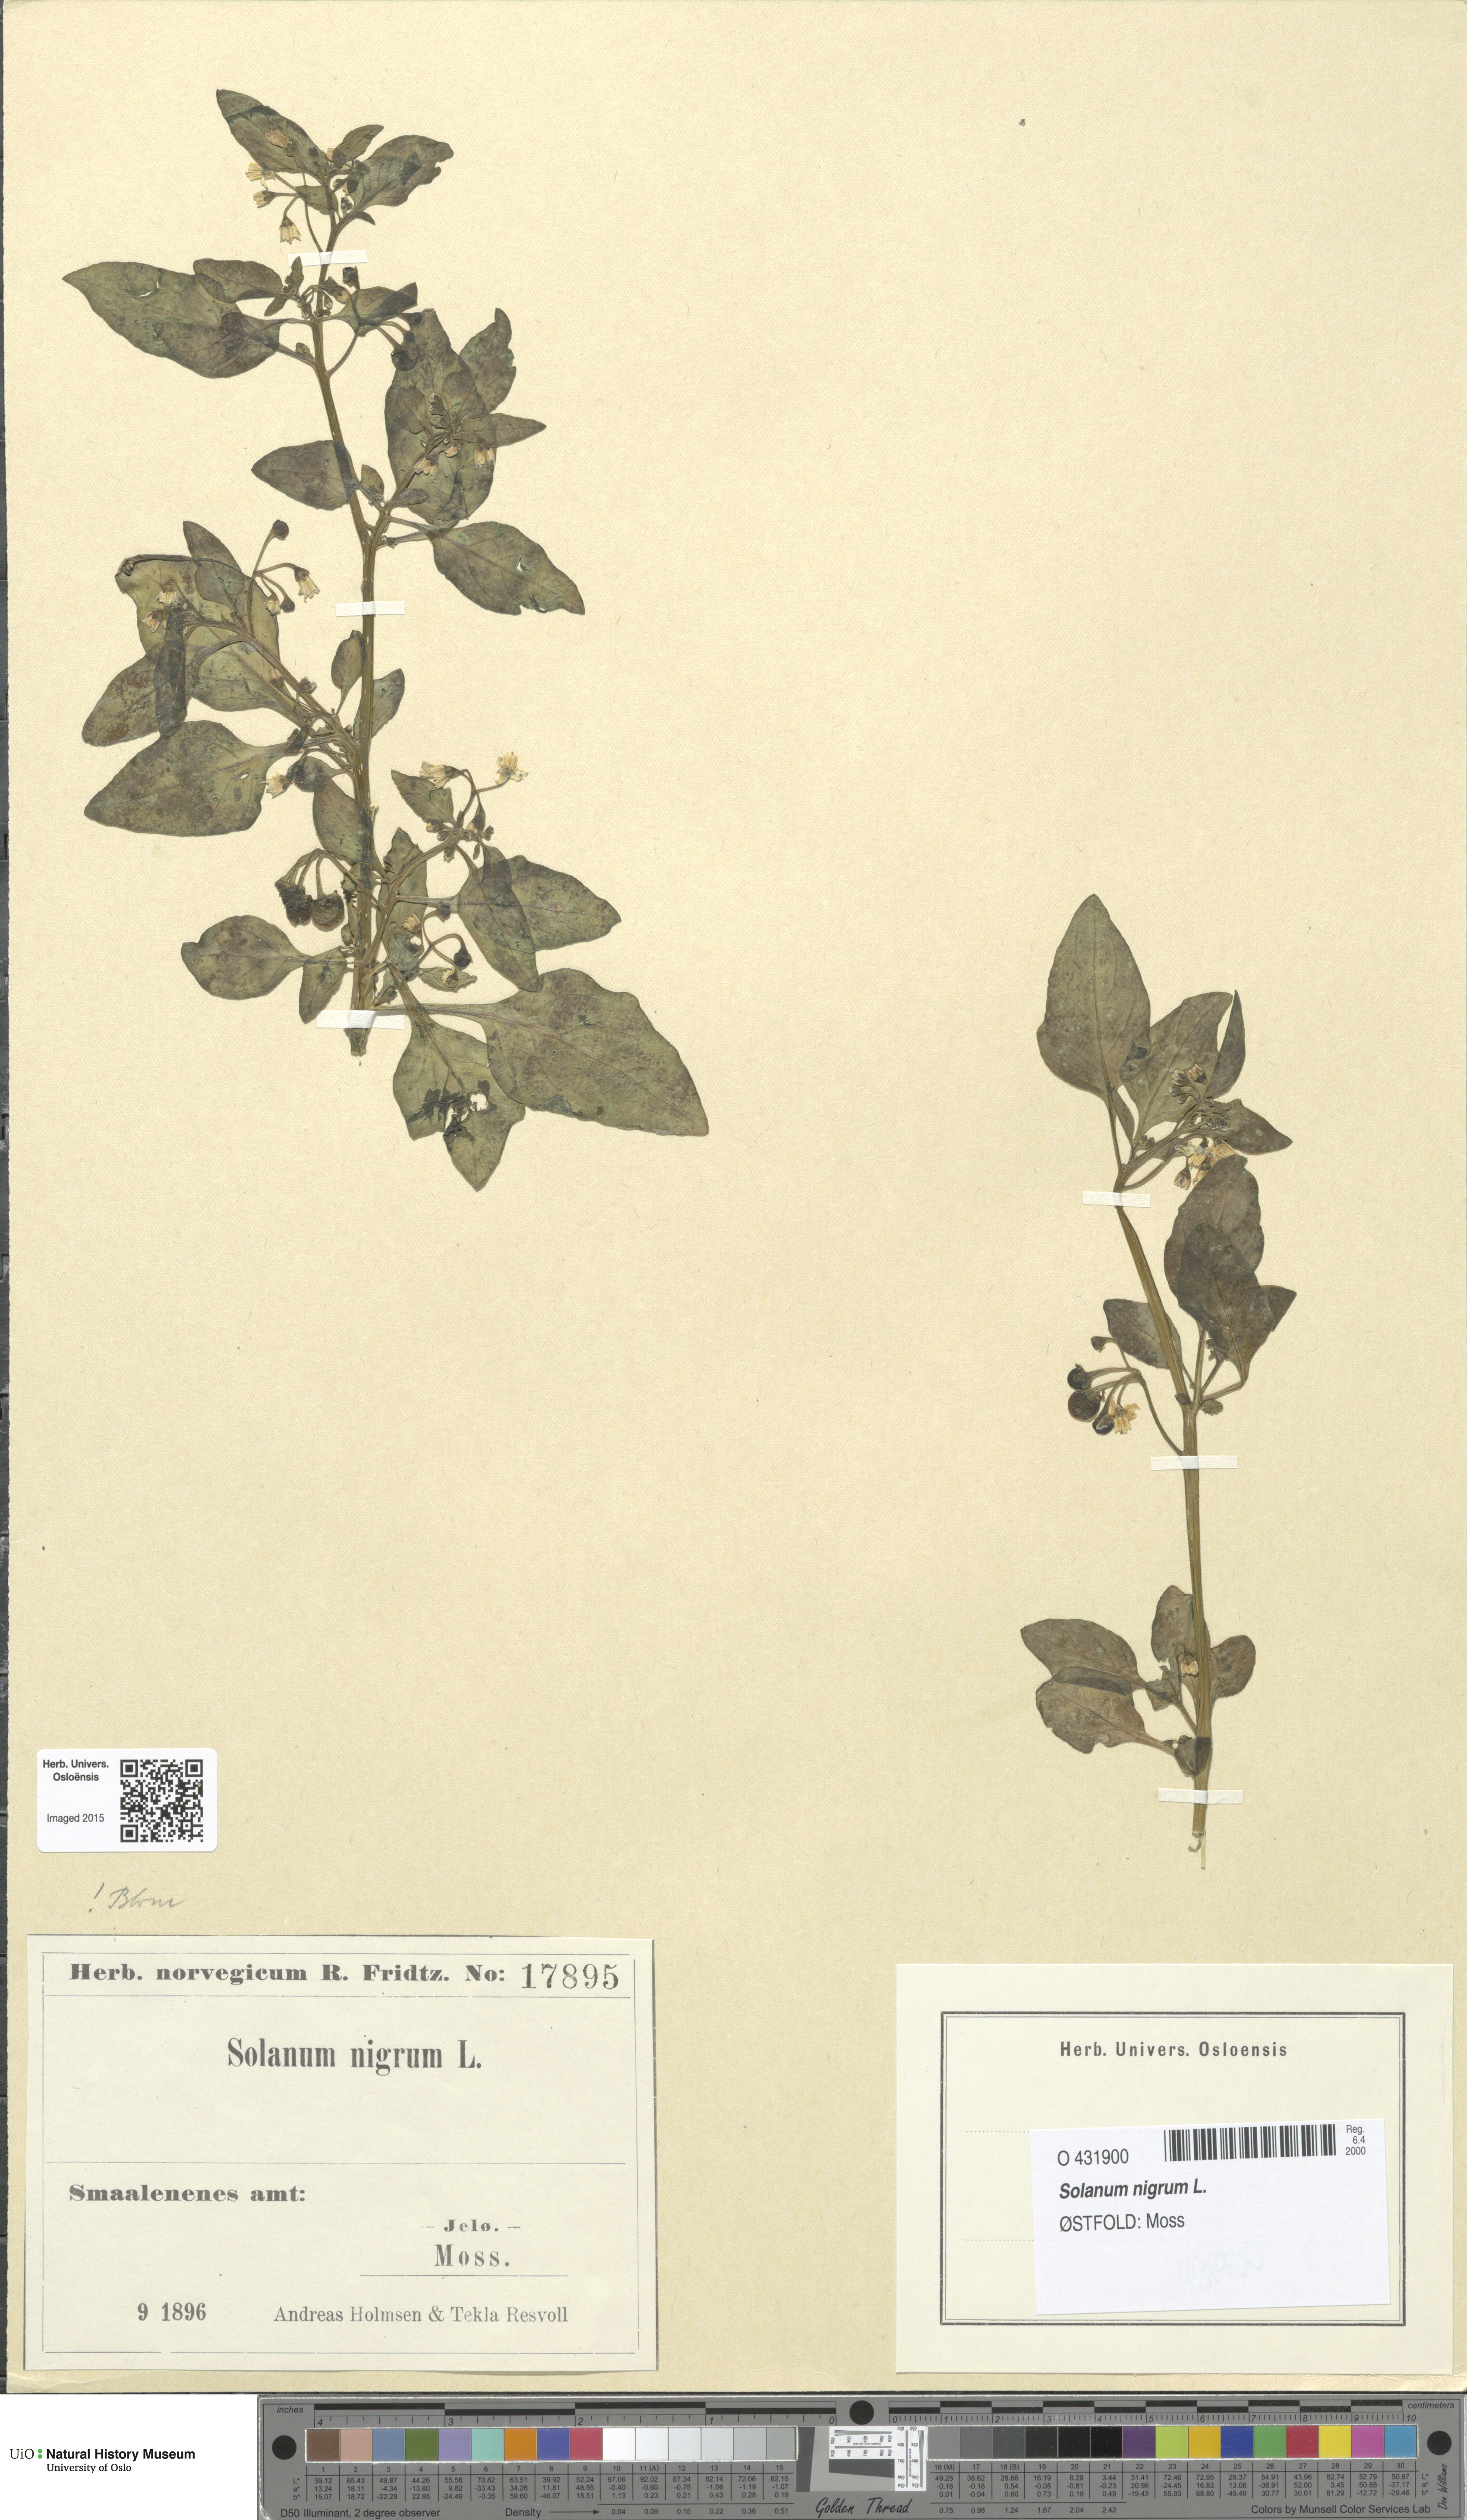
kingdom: Plantae
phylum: Tracheophyta
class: Magnoliopsida
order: Solanales
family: Solanaceae
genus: Solanum
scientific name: Solanum nigrum
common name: Black nightshade
